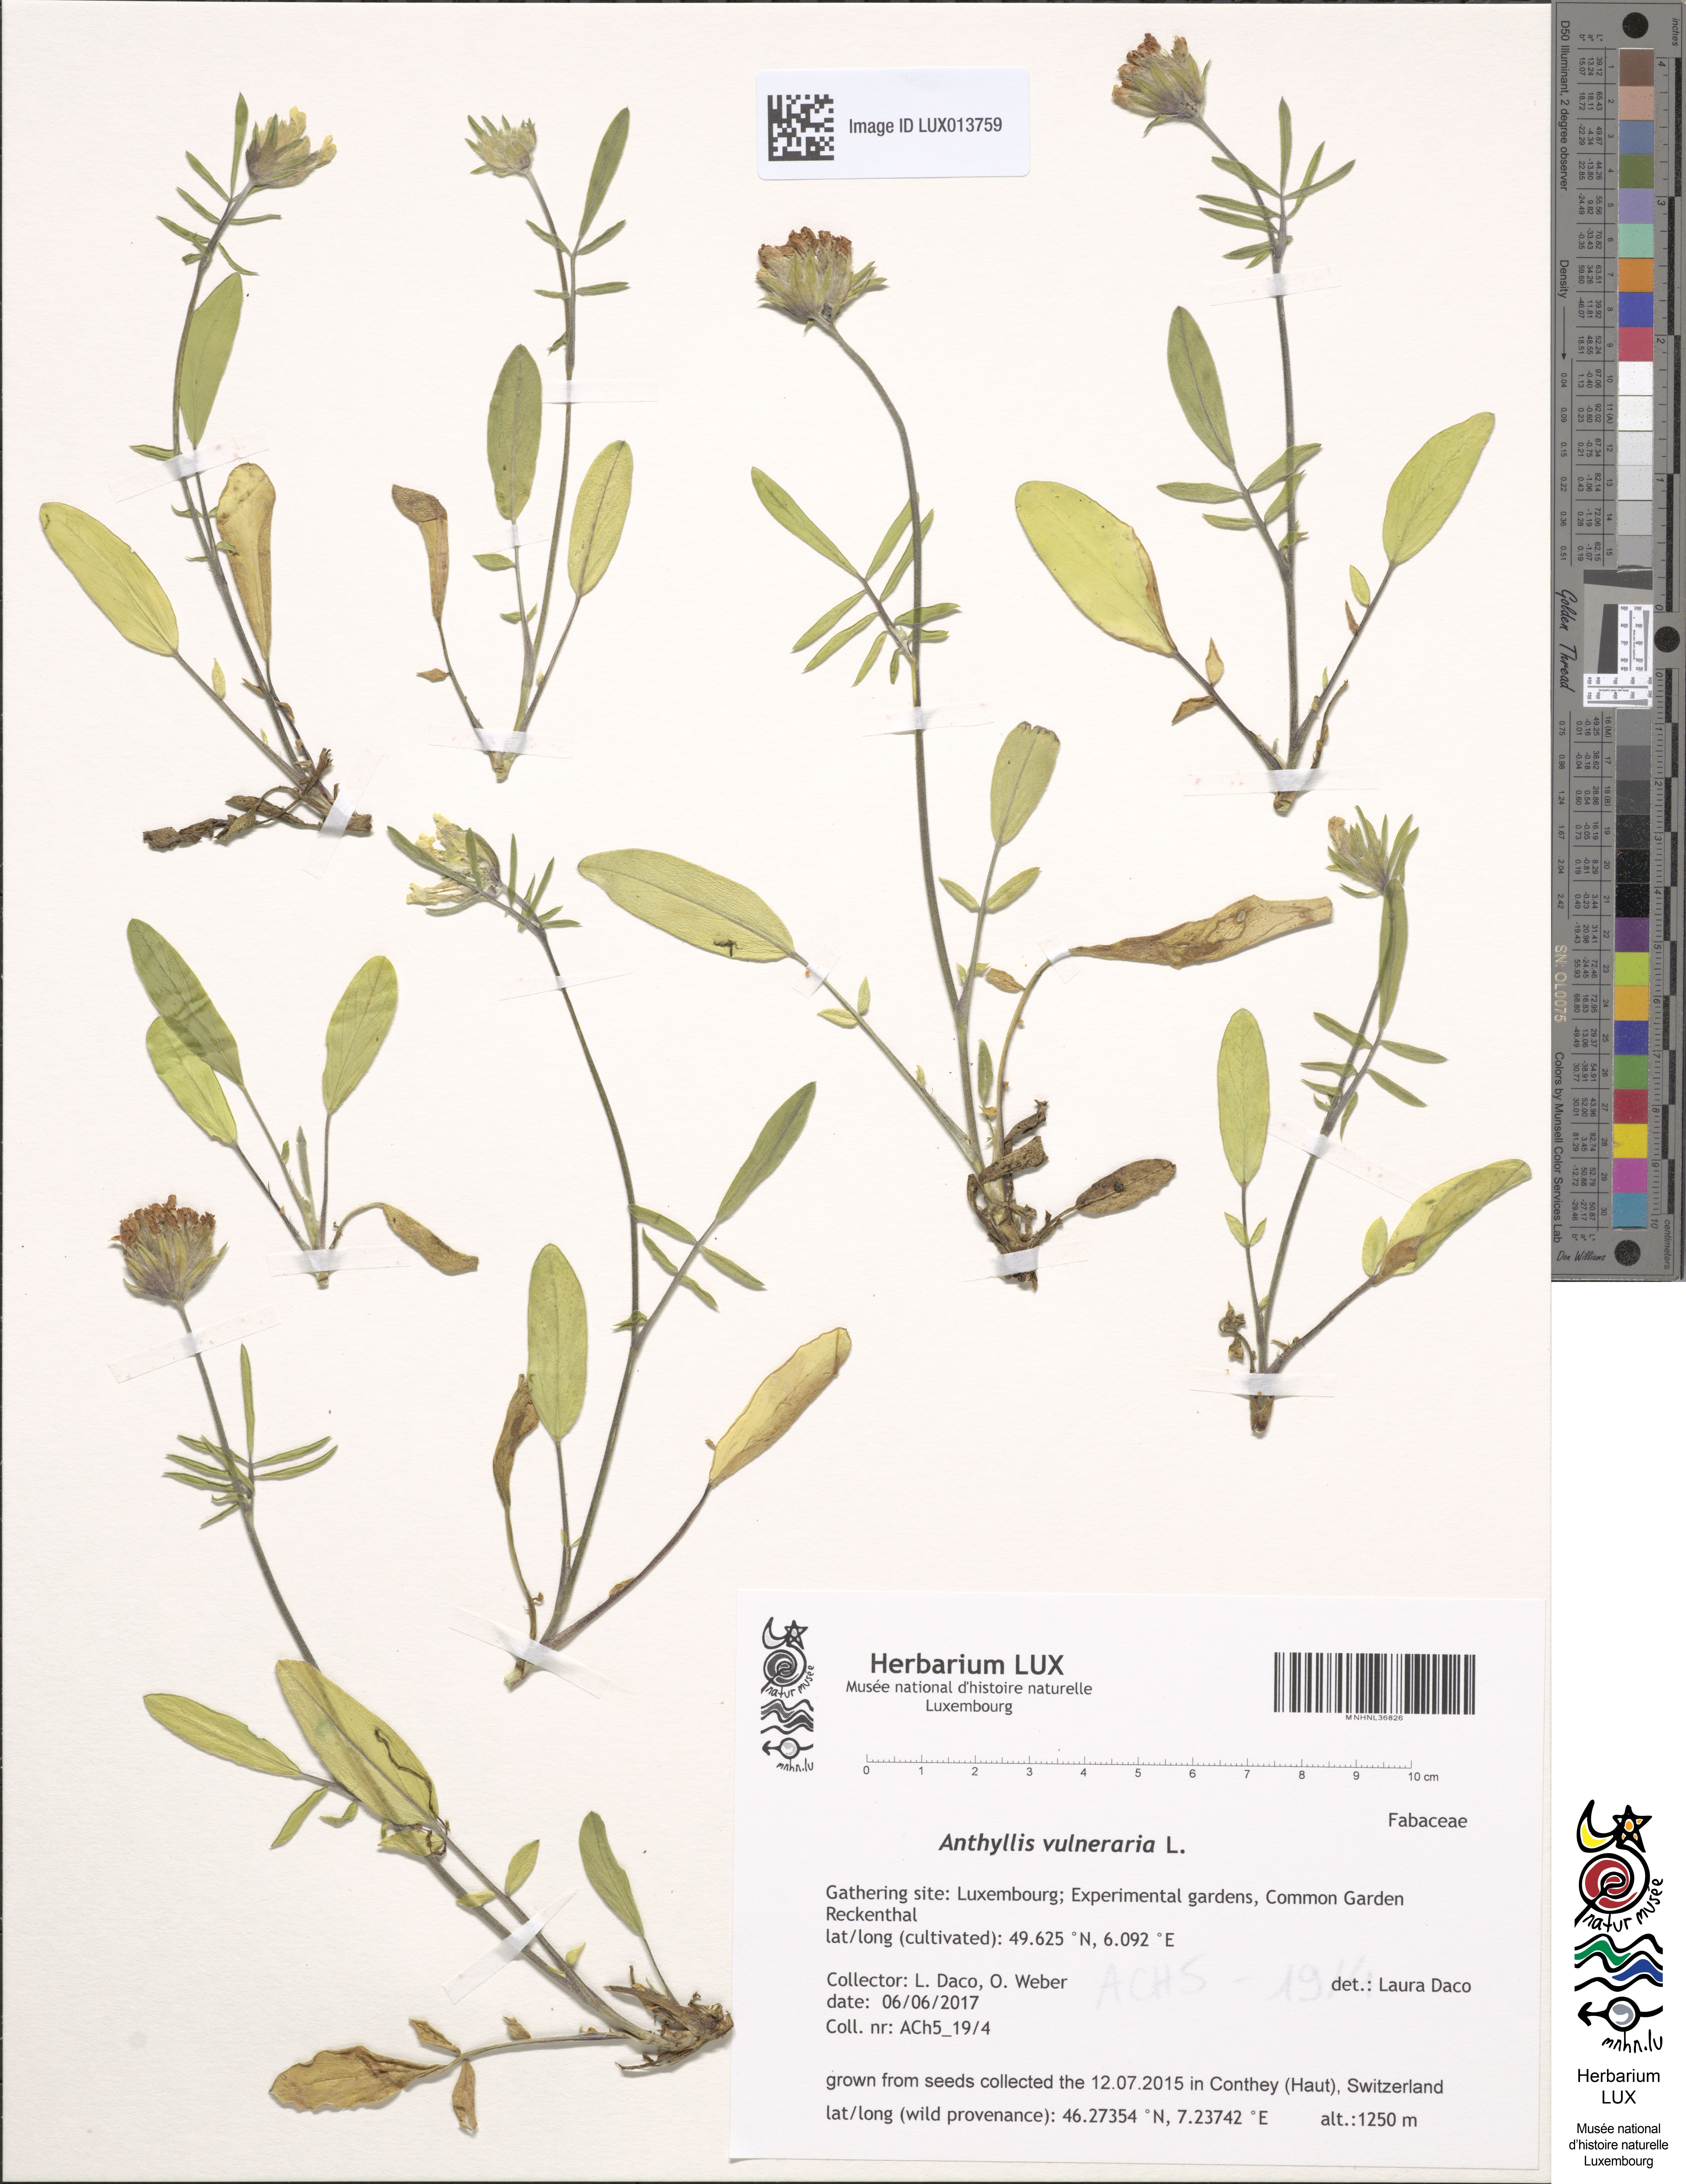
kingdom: Plantae
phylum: Tracheophyta
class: Magnoliopsida
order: Fabales
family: Fabaceae
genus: Anthyllis
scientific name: Anthyllis vulneraria
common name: Kidney vetch
